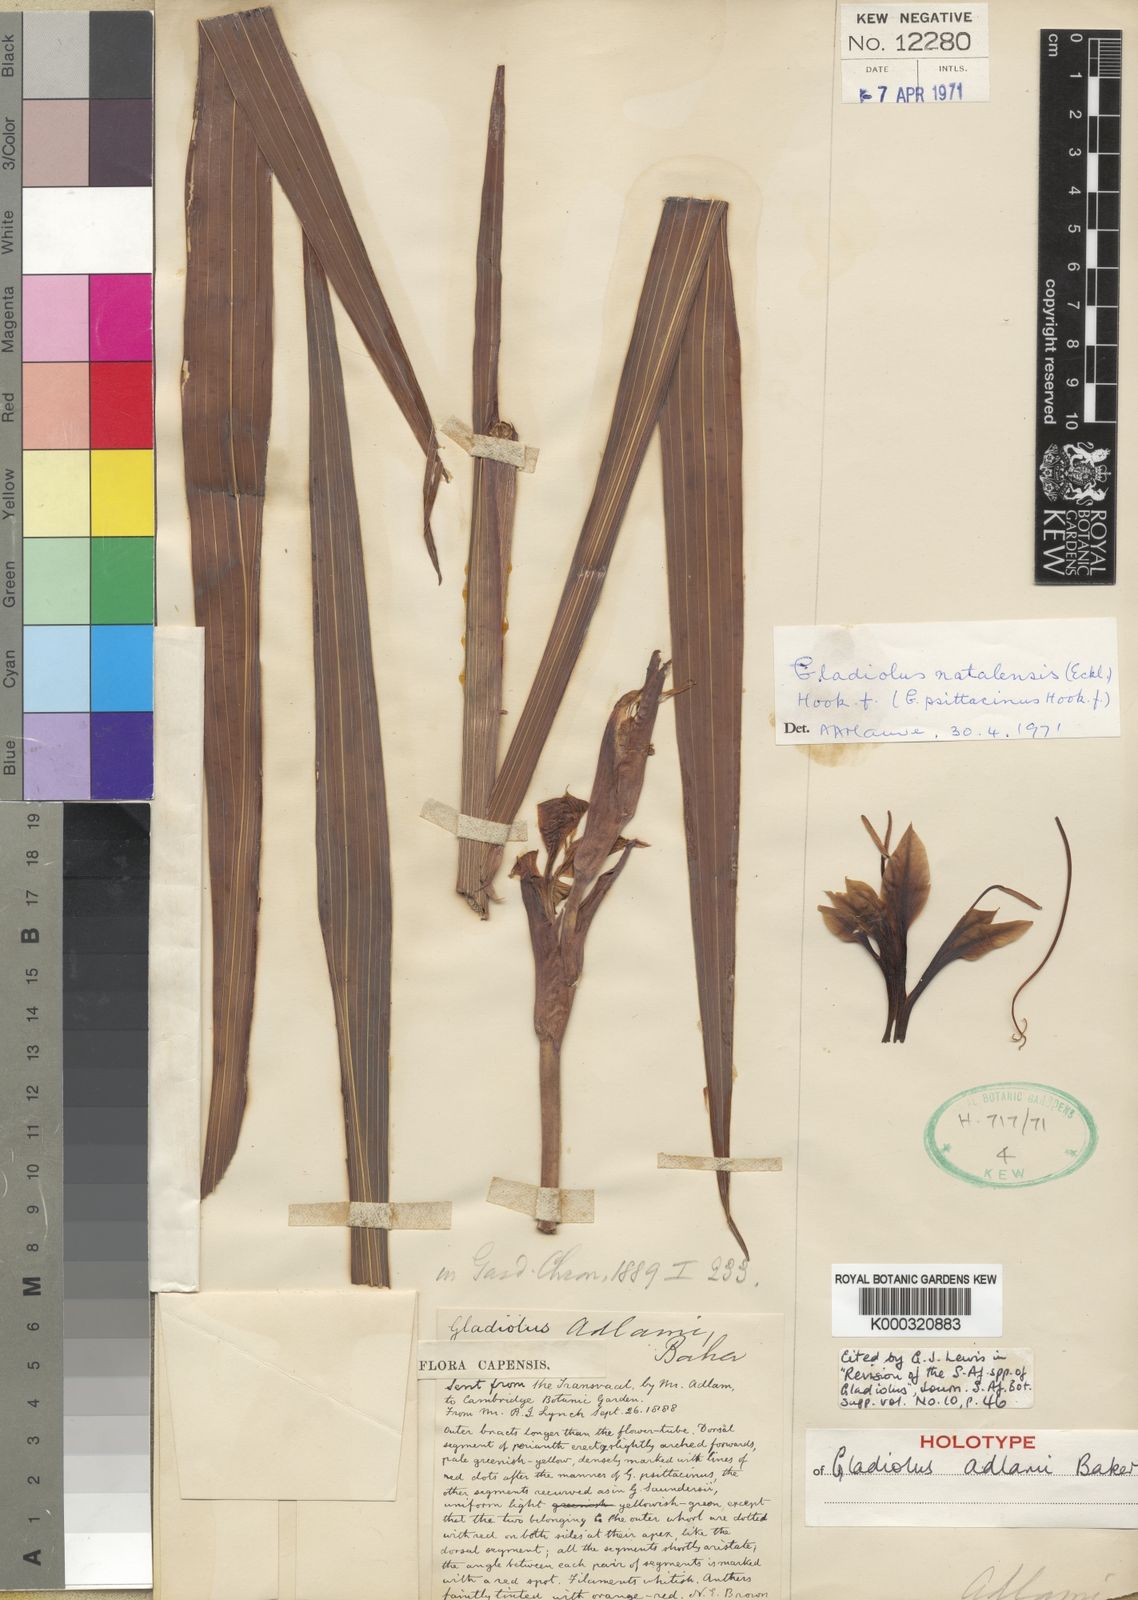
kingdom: Plantae
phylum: Tracheophyta
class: Liliopsida
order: Asparagales
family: Iridaceae
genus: Gladiolus
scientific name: Gladiolus dalenii
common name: Cornflag
